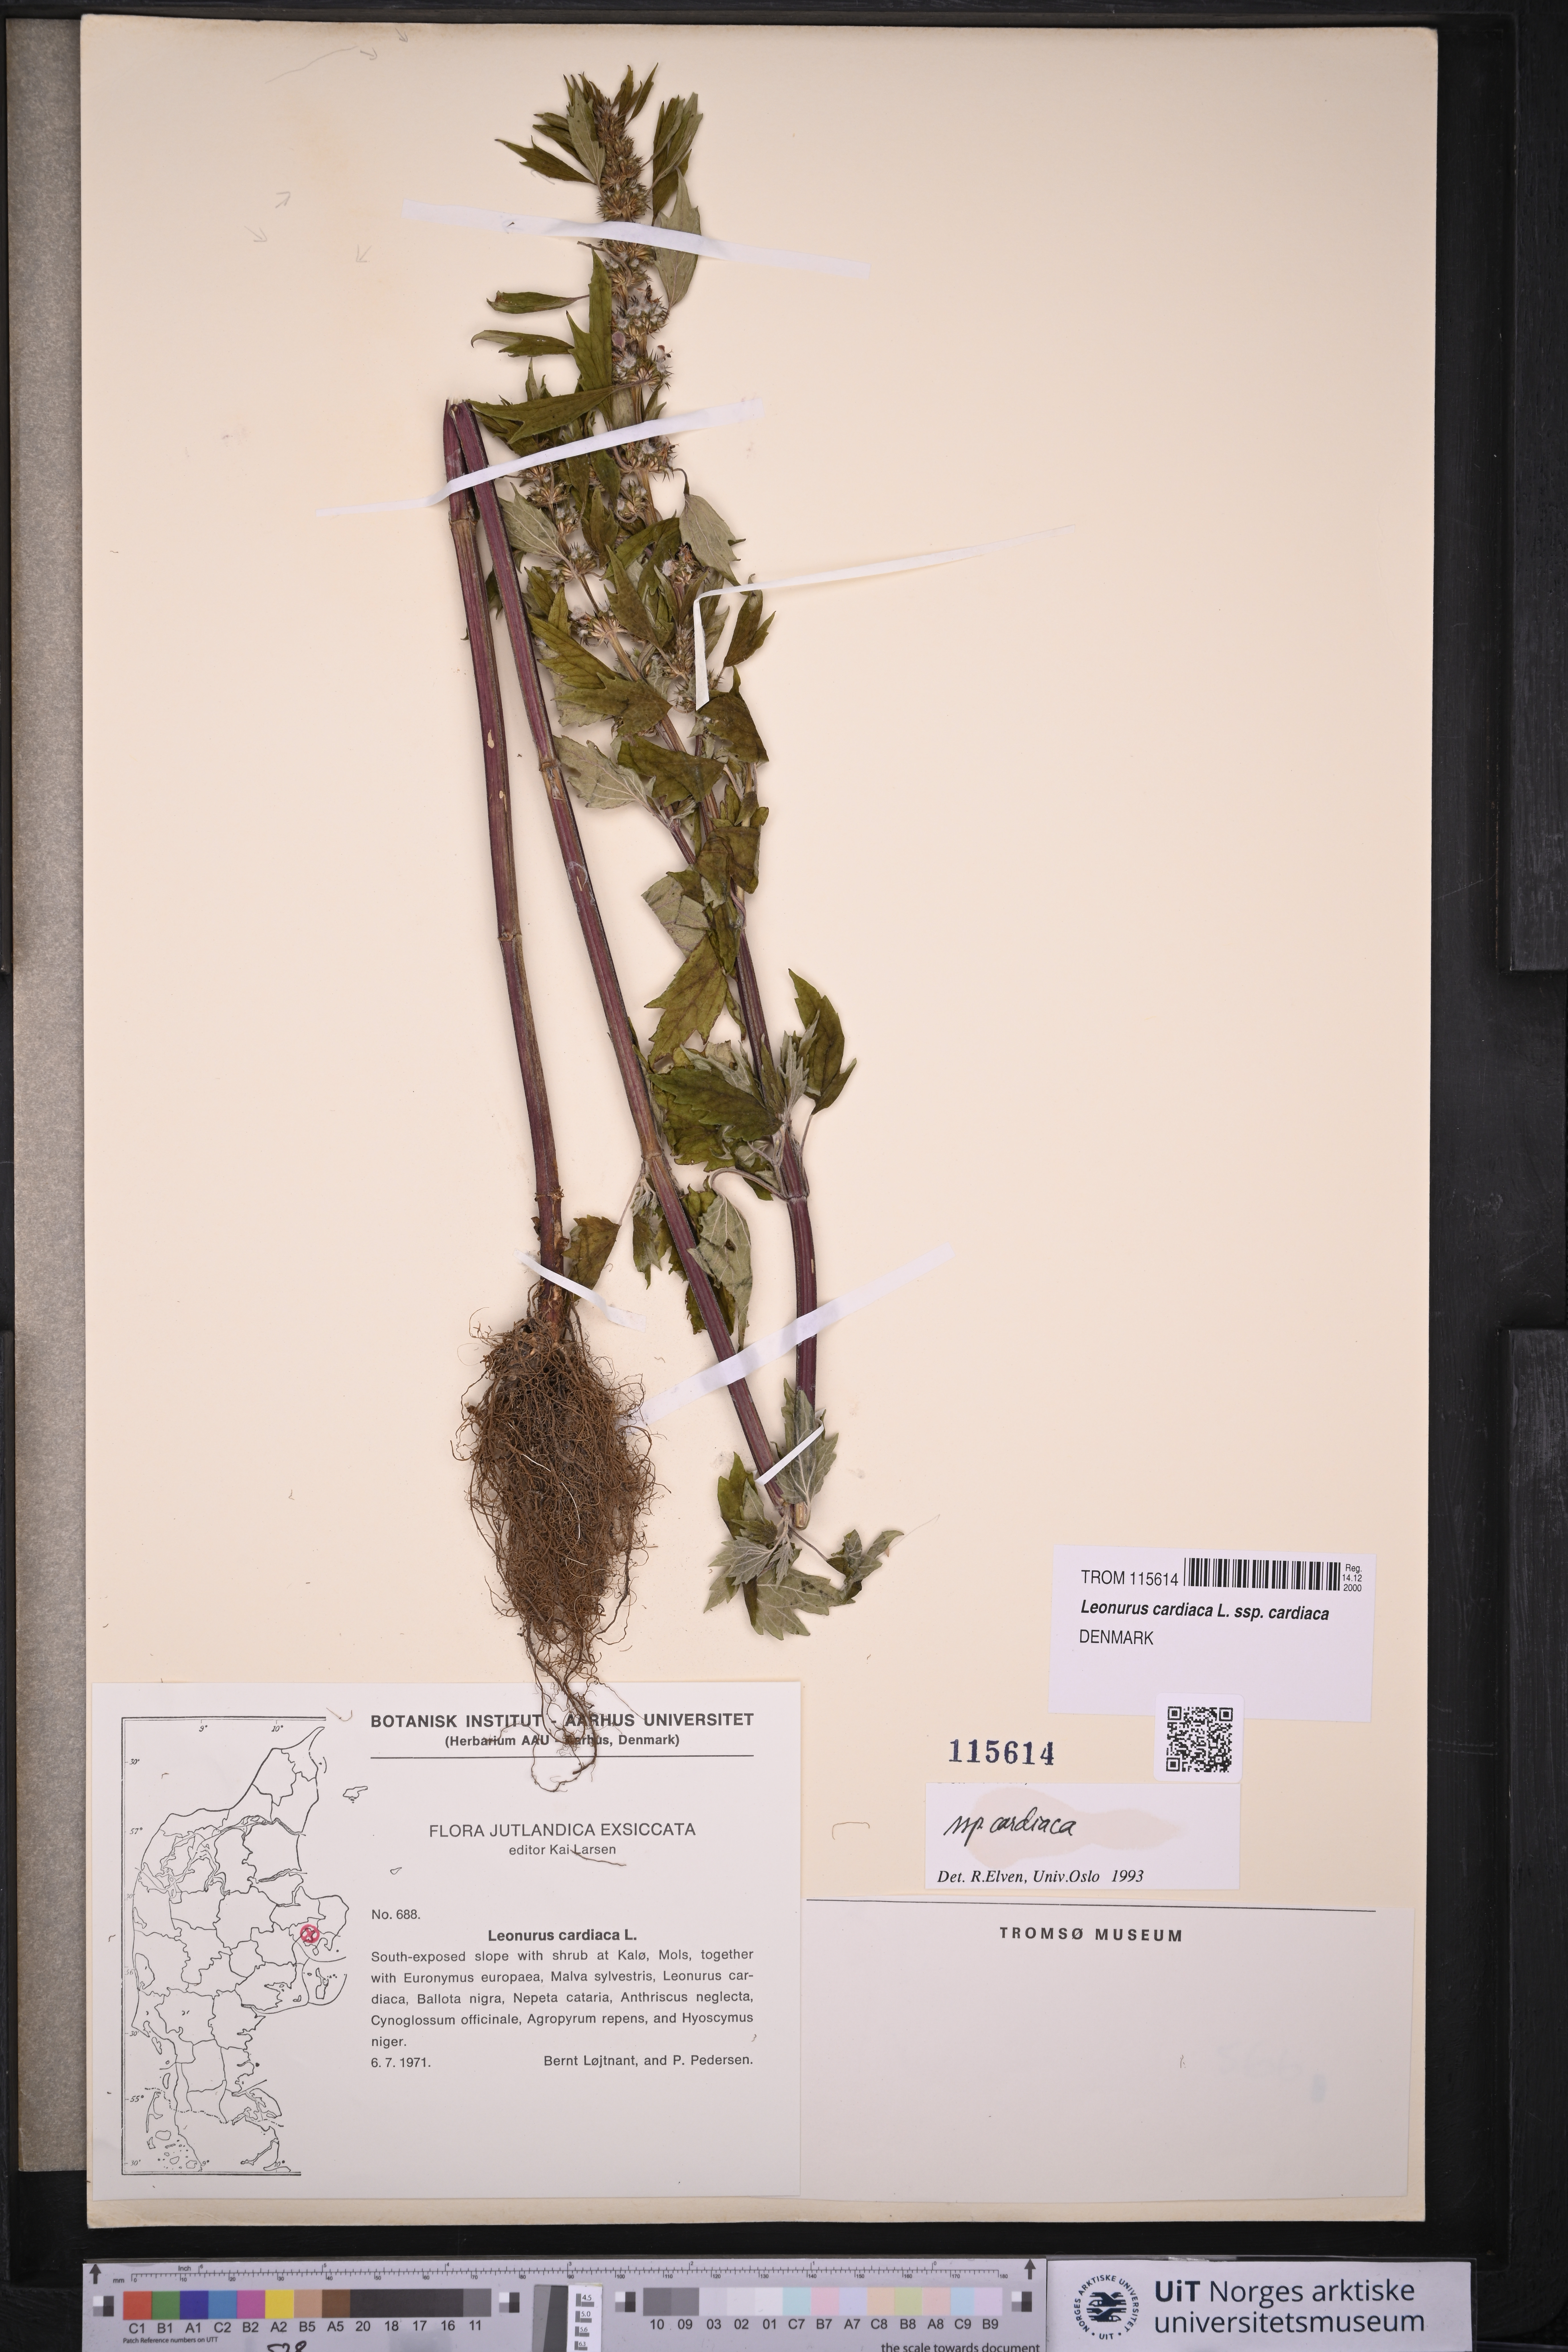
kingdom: Plantae
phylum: Tracheophyta
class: Magnoliopsida
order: Lamiales
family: Lamiaceae
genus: Leonurus
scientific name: Leonurus cardiaca
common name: Motherwort
